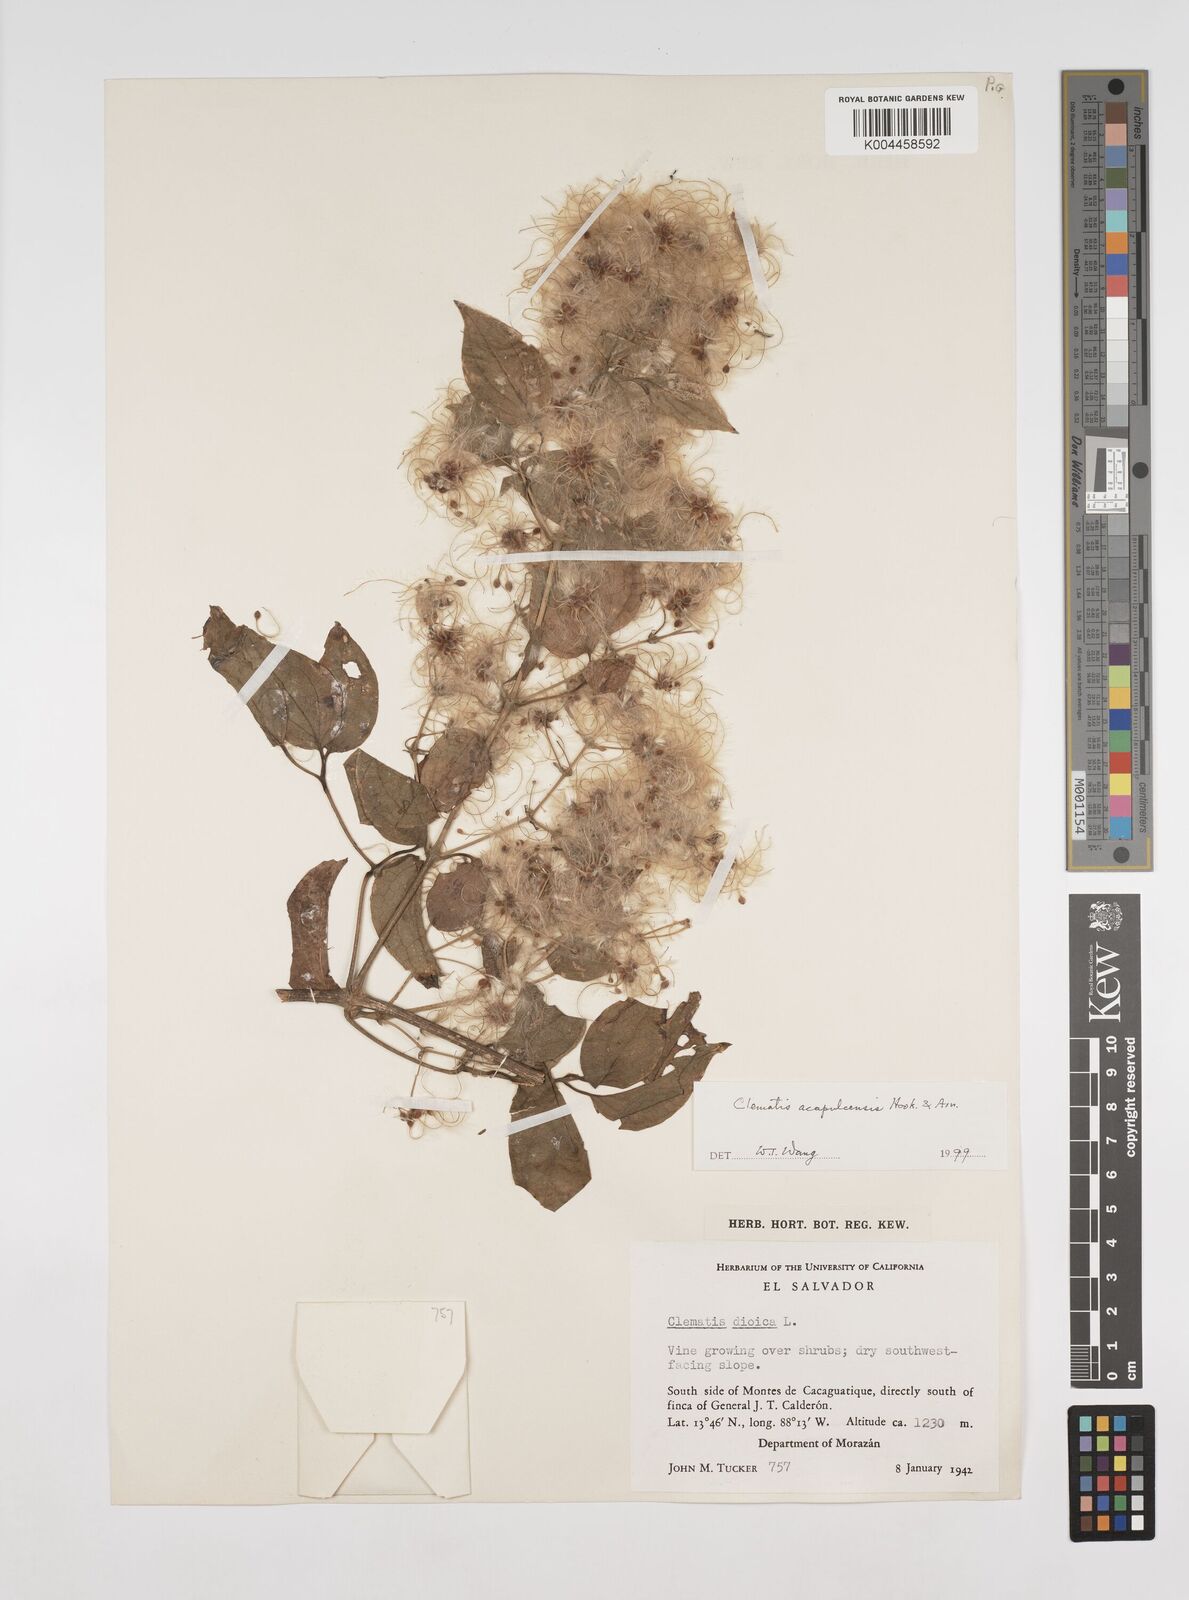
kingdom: Plantae
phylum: Tracheophyta
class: Magnoliopsida
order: Ranunculales
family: Ranunculaceae
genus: Clematis
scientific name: Clematis acapulcensis
